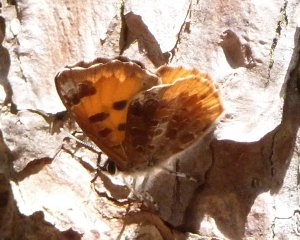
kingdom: Animalia
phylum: Arthropoda
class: Insecta
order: Lepidoptera
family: Lycaenidae
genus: Feniseca
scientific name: Feniseca tarquinius
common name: Harvester
